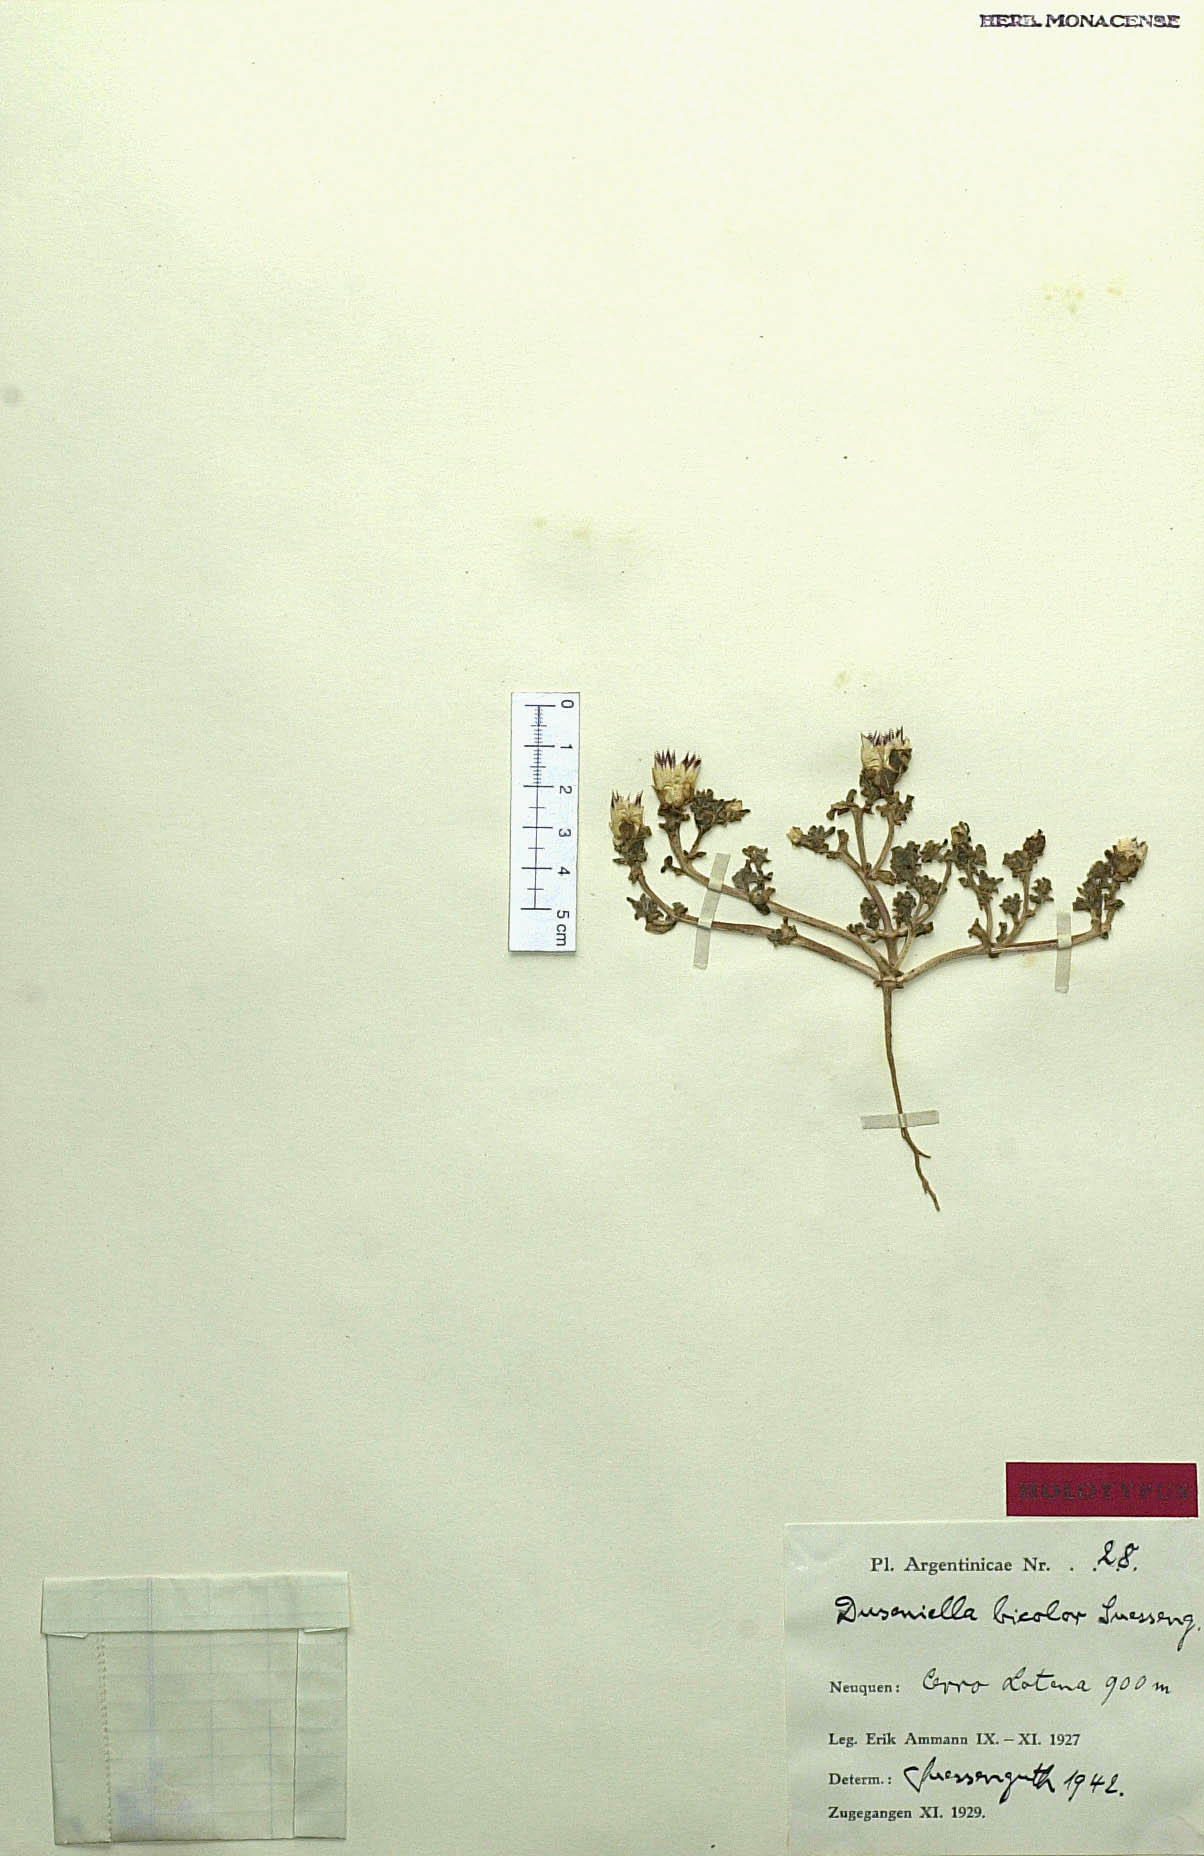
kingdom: Plantae
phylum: Tracheophyta
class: Magnoliopsida
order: Asterales
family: Asteraceae
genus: Duseniella
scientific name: Duseniella patagonica
